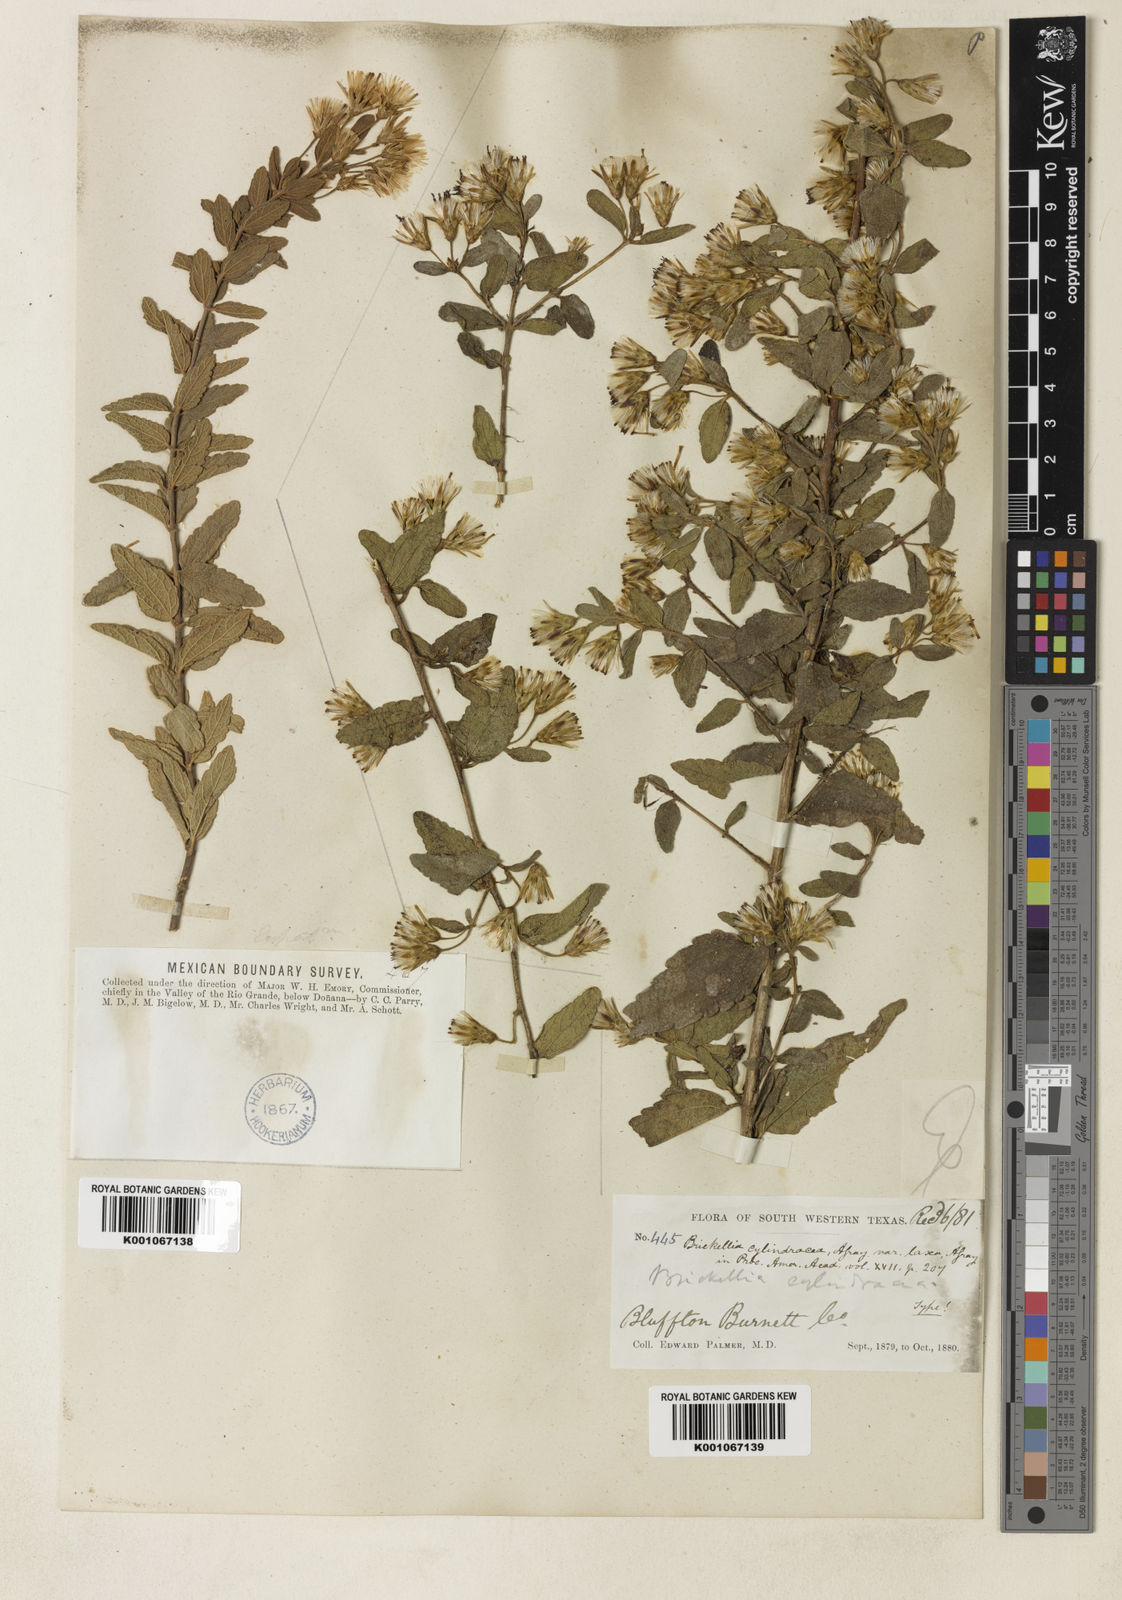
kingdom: Plantae
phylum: Tracheophyta
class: Magnoliopsida
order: Asterales
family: Asteraceae
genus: Brickellia
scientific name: Brickellia cylindracea
